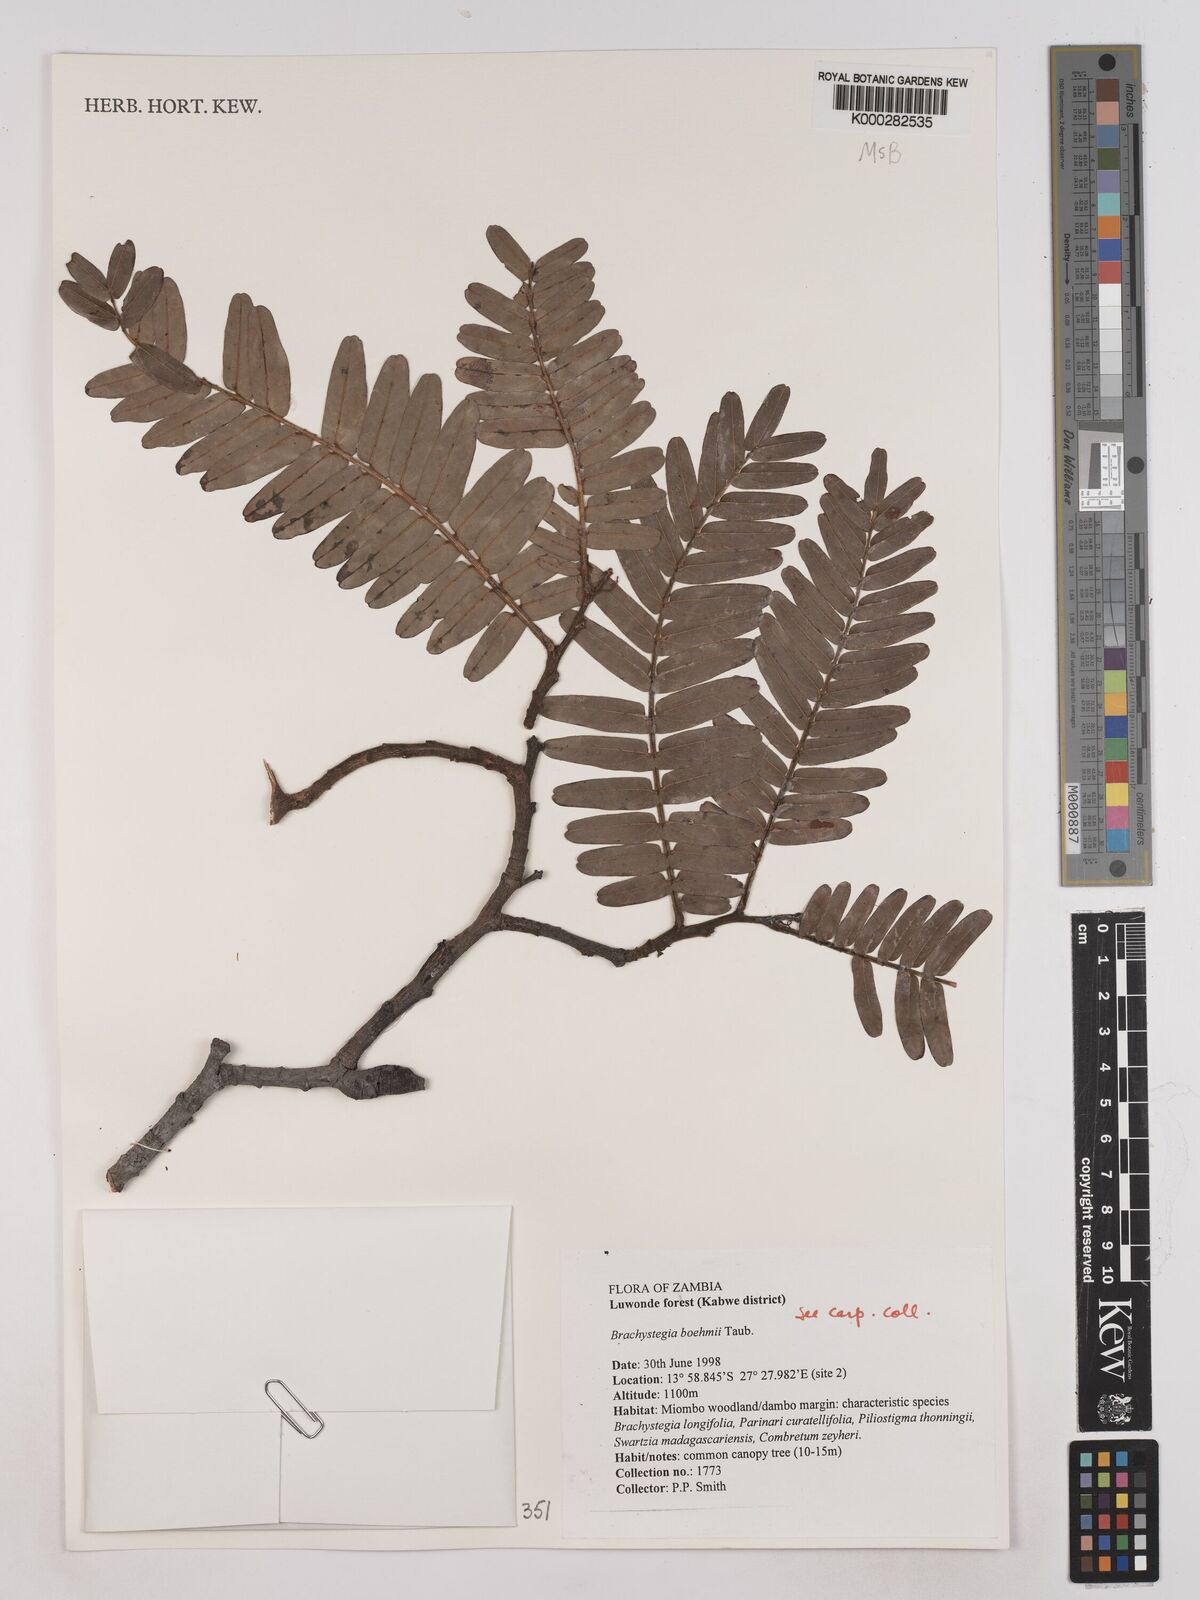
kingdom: Plantae
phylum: Tracheophyta
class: Magnoliopsida
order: Fabales
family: Fabaceae
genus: Brachystegia
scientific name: Brachystegia boehmii
